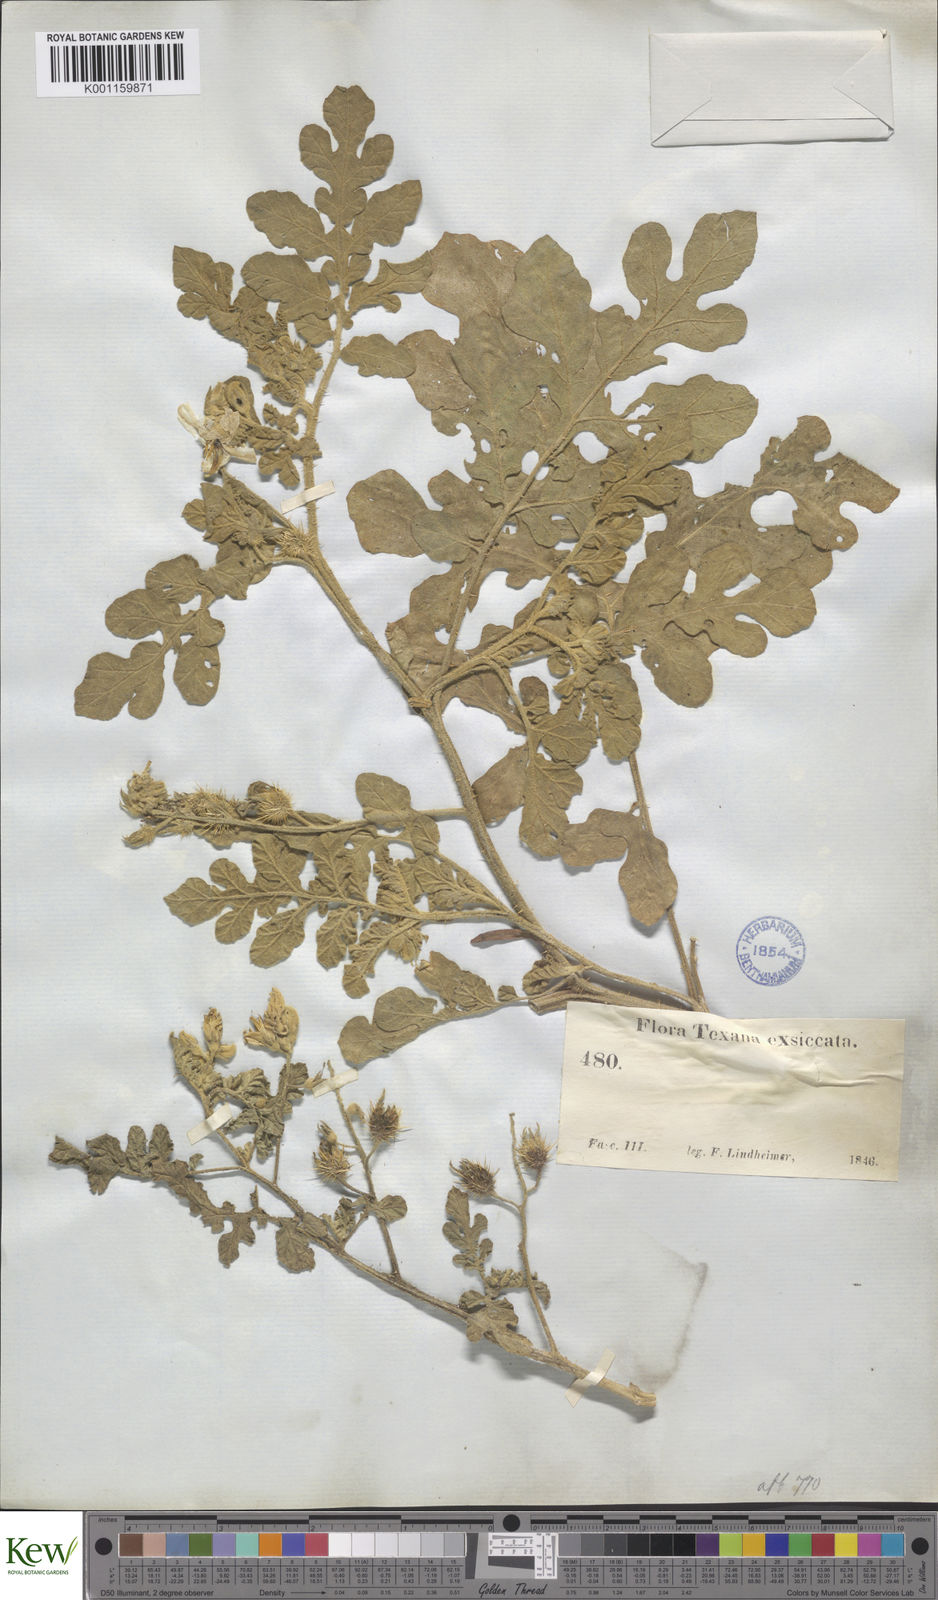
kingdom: Plantae
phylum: Tracheophyta
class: Magnoliopsida
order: Solanales
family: Solanaceae
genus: Solanum
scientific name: Solanum angustifolium
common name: Buffalobur nightshade
